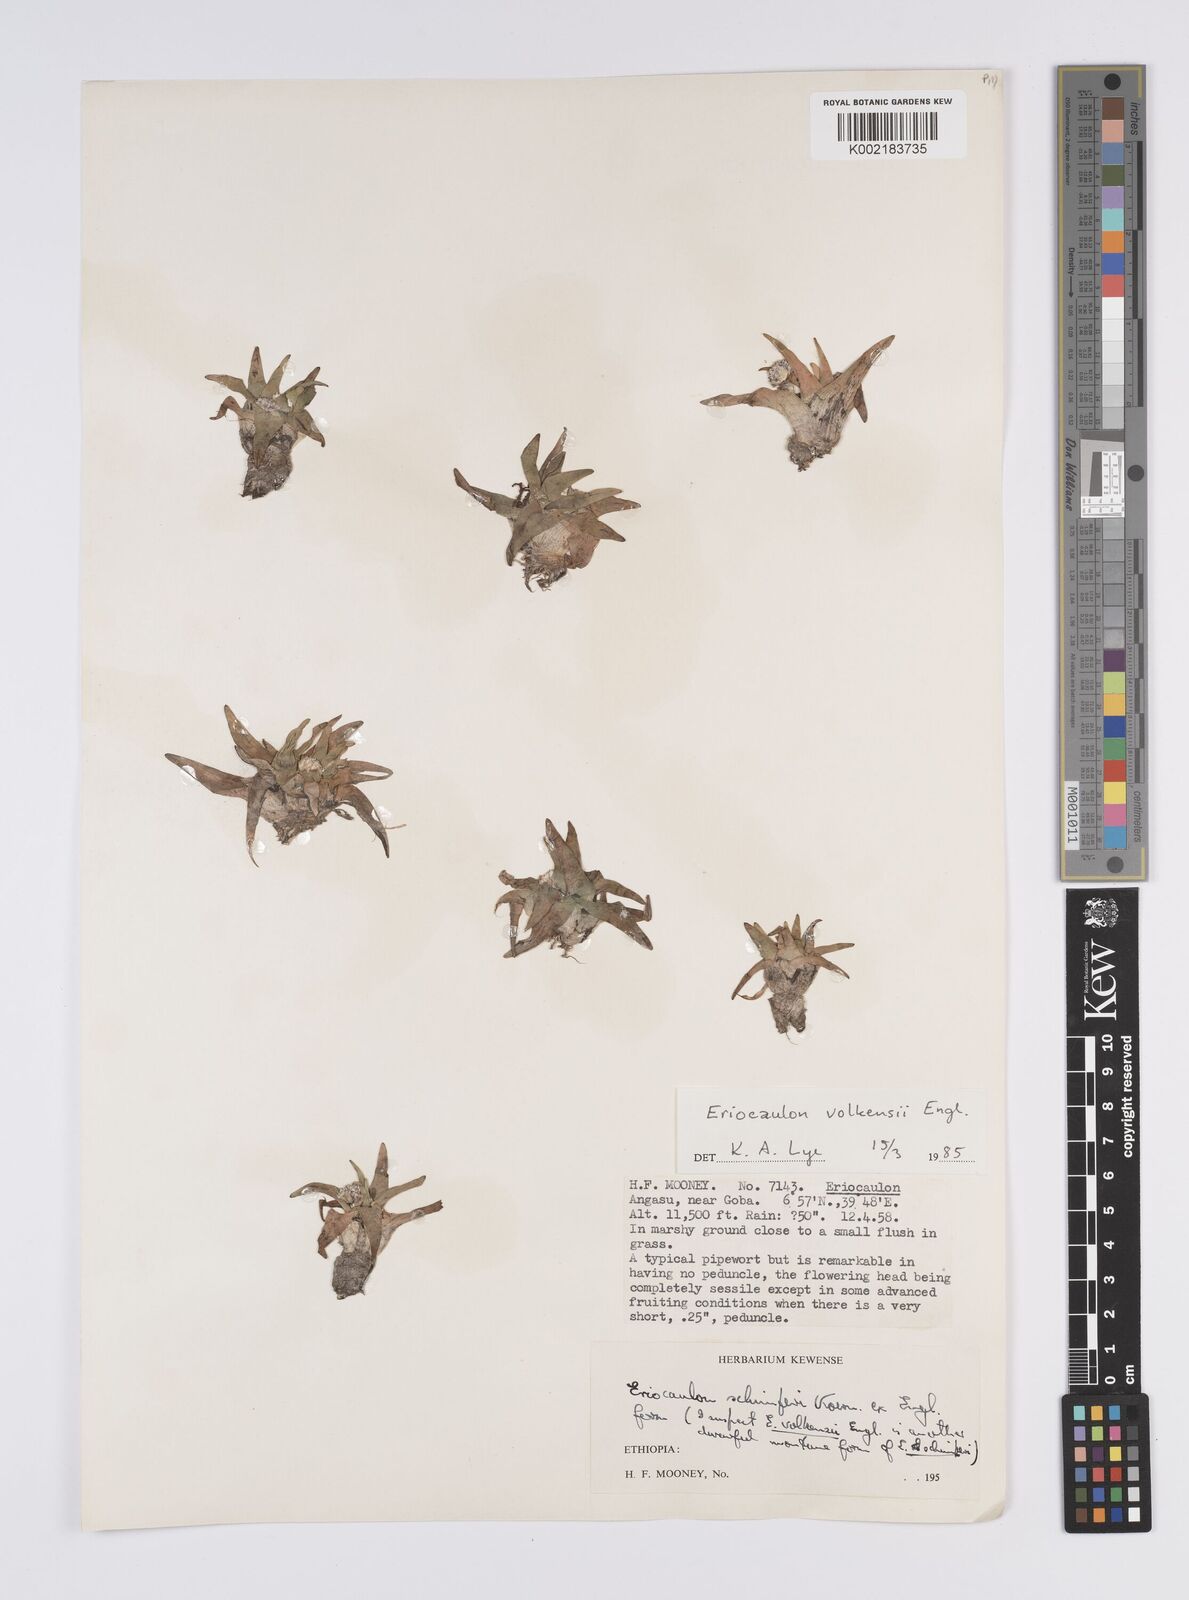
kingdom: Plantae
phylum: Tracheophyta
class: Liliopsida
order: Poales
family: Eriocaulaceae
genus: Eriocaulon
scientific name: Eriocaulon schimperi
